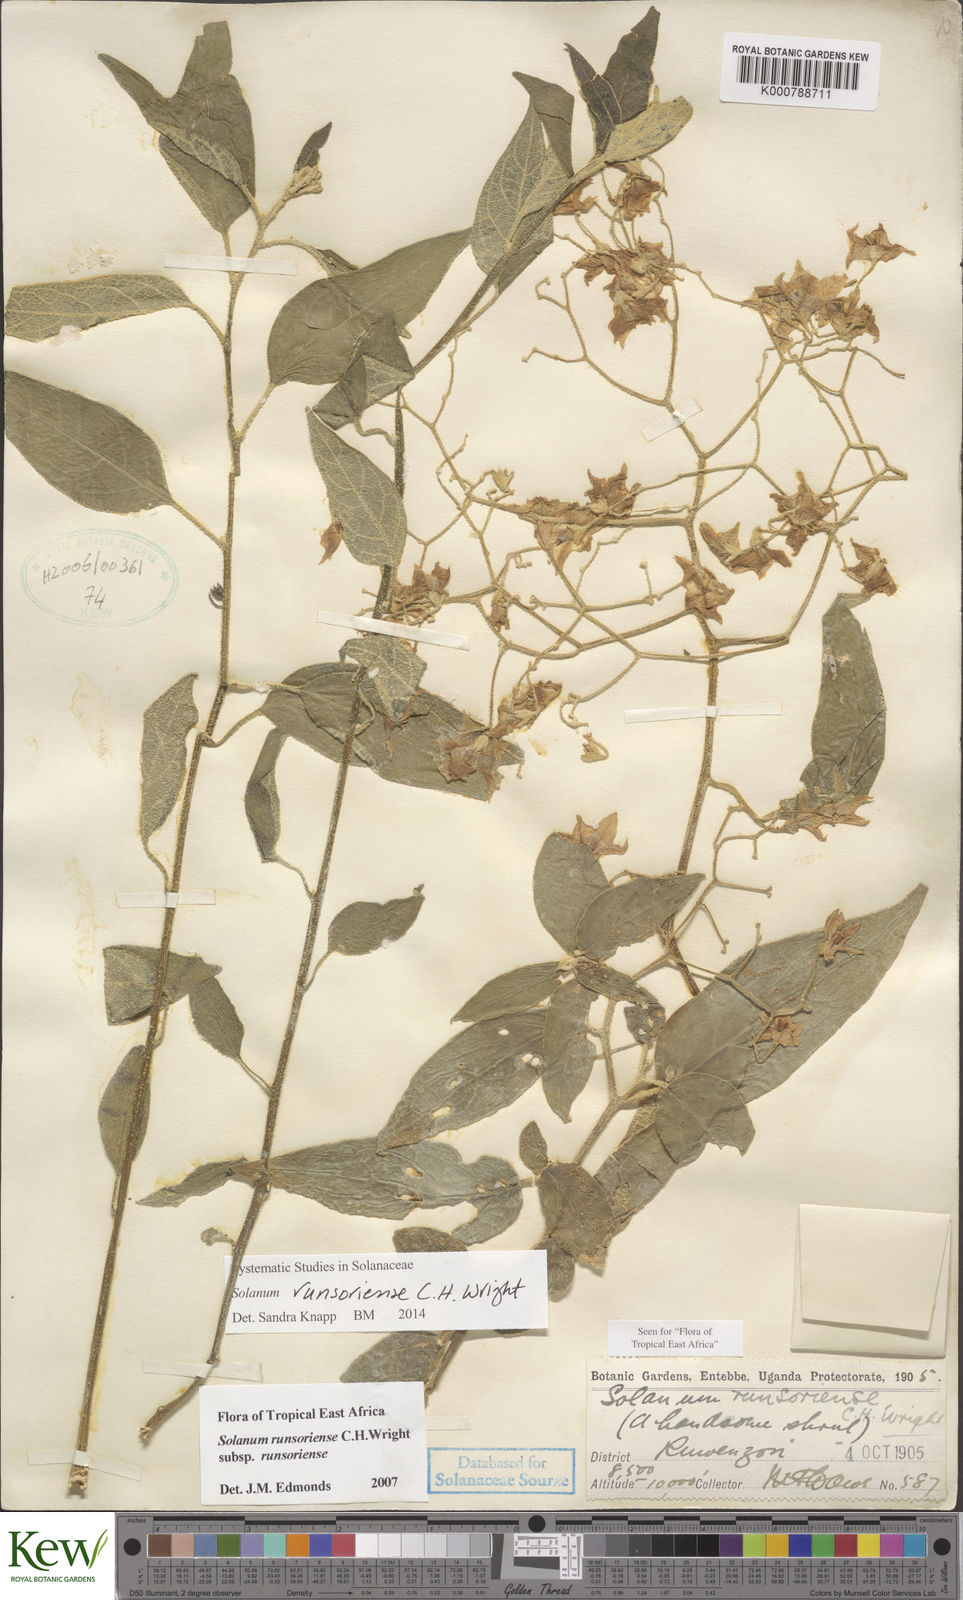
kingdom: Plantae
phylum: Tracheophyta
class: Magnoliopsida
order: Solanales
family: Solanaceae
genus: Solanum
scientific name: Solanum runsoriense
